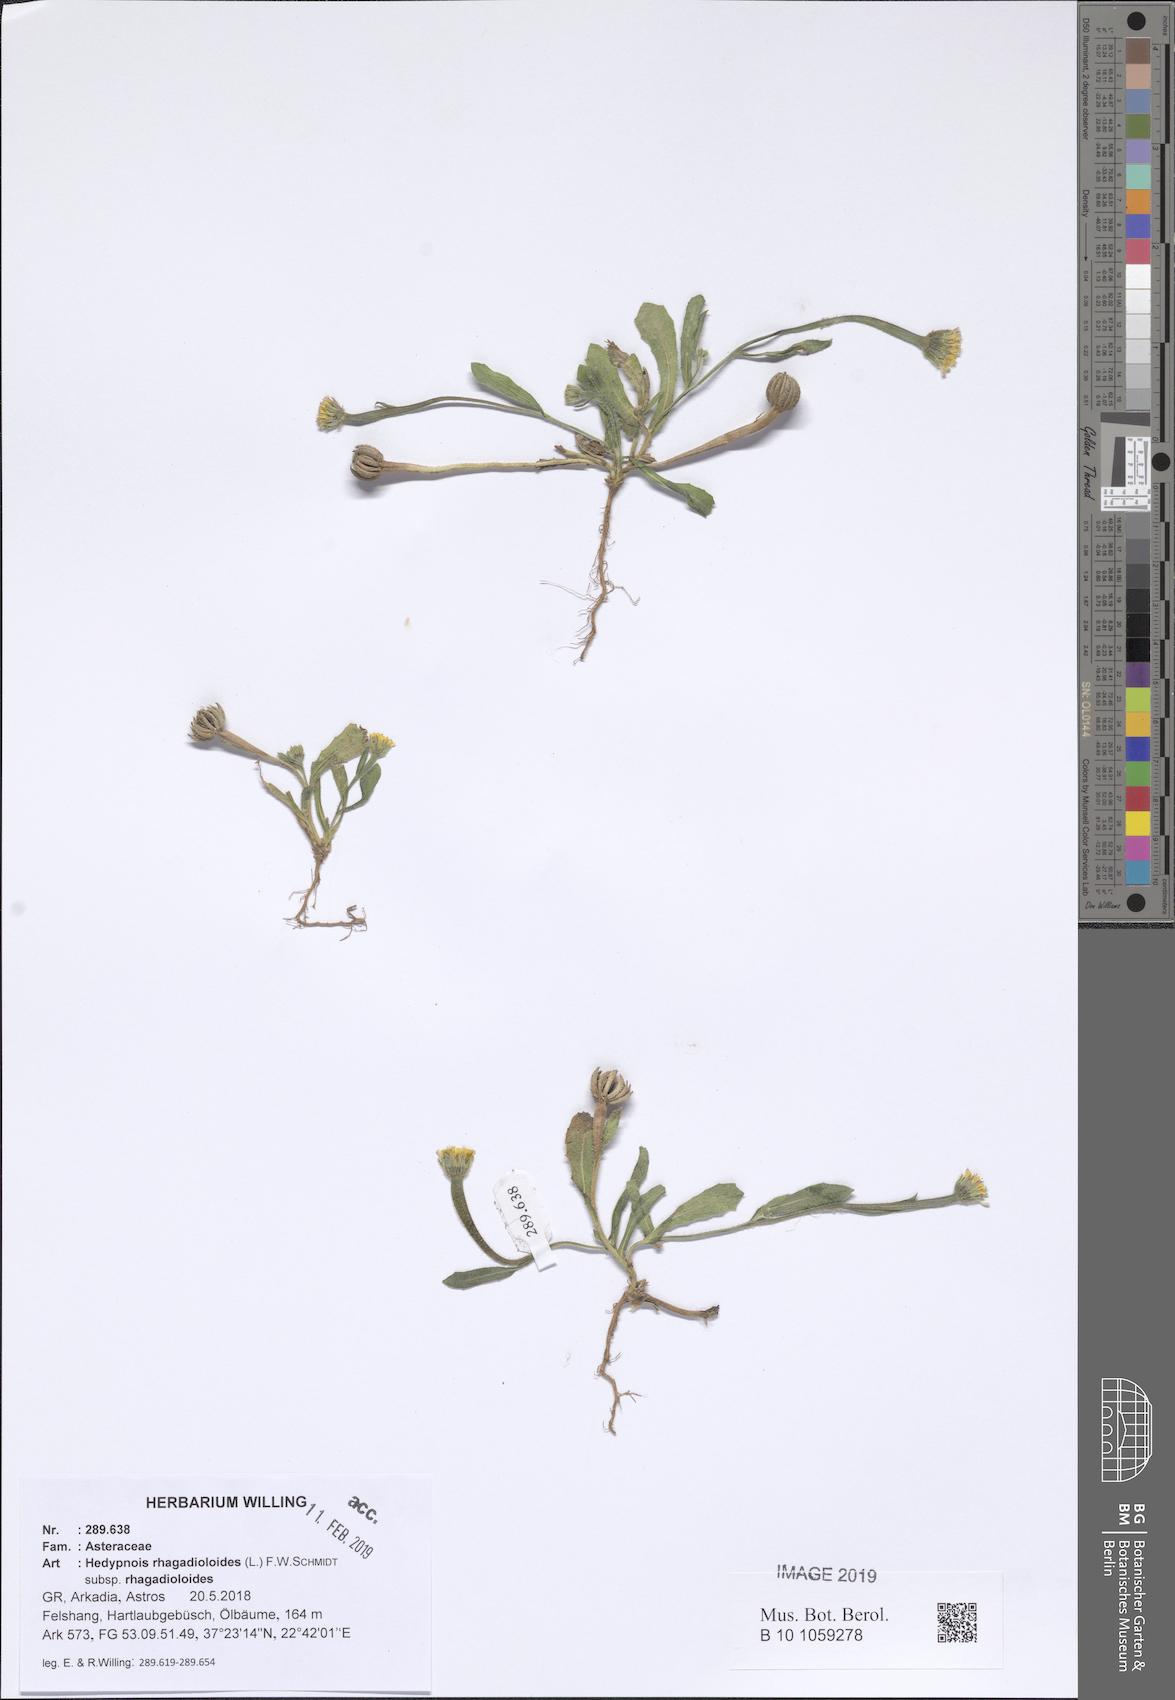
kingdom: Plantae
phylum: Tracheophyta
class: Magnoliopsida
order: Asterales
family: Asteraceae
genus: Hedypnois
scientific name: Hedypnois rhagadioloides
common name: Cretan weed
